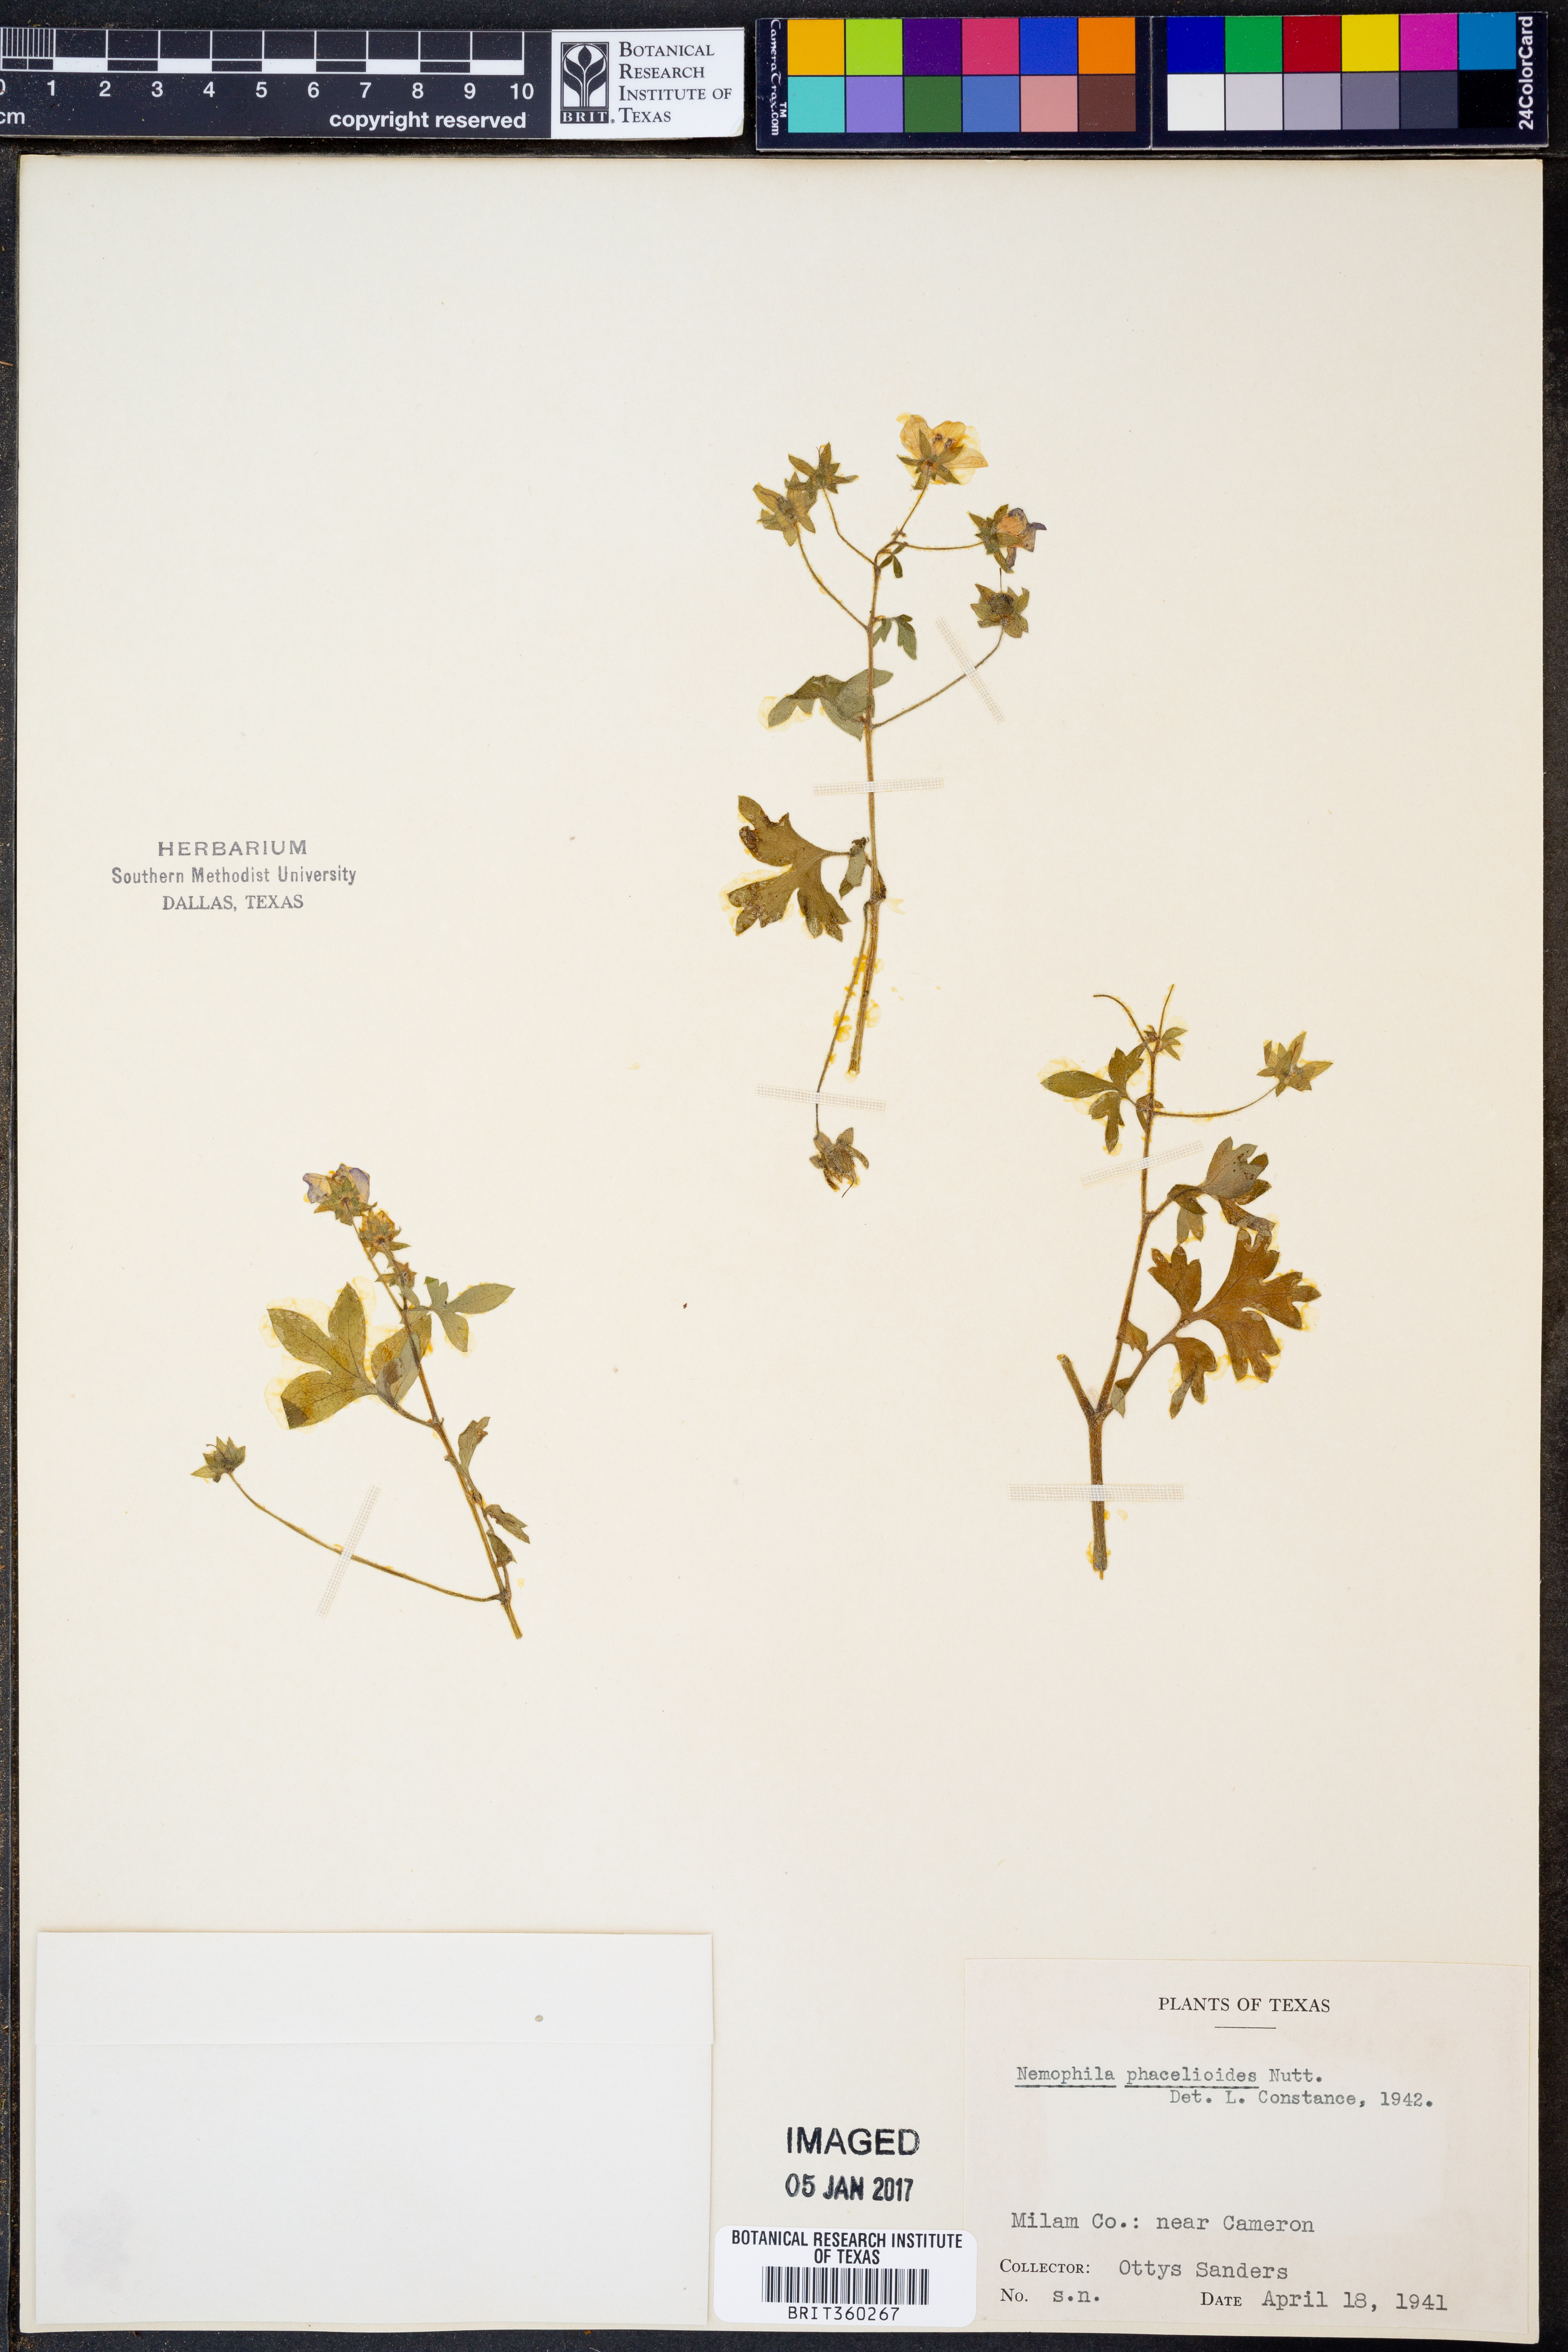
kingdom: Plantae
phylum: Tracheophyta
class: Magnoliopsida
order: Boraginales
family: Hydrophyllaceae
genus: Nemophila
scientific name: Nemophila phacelioides
